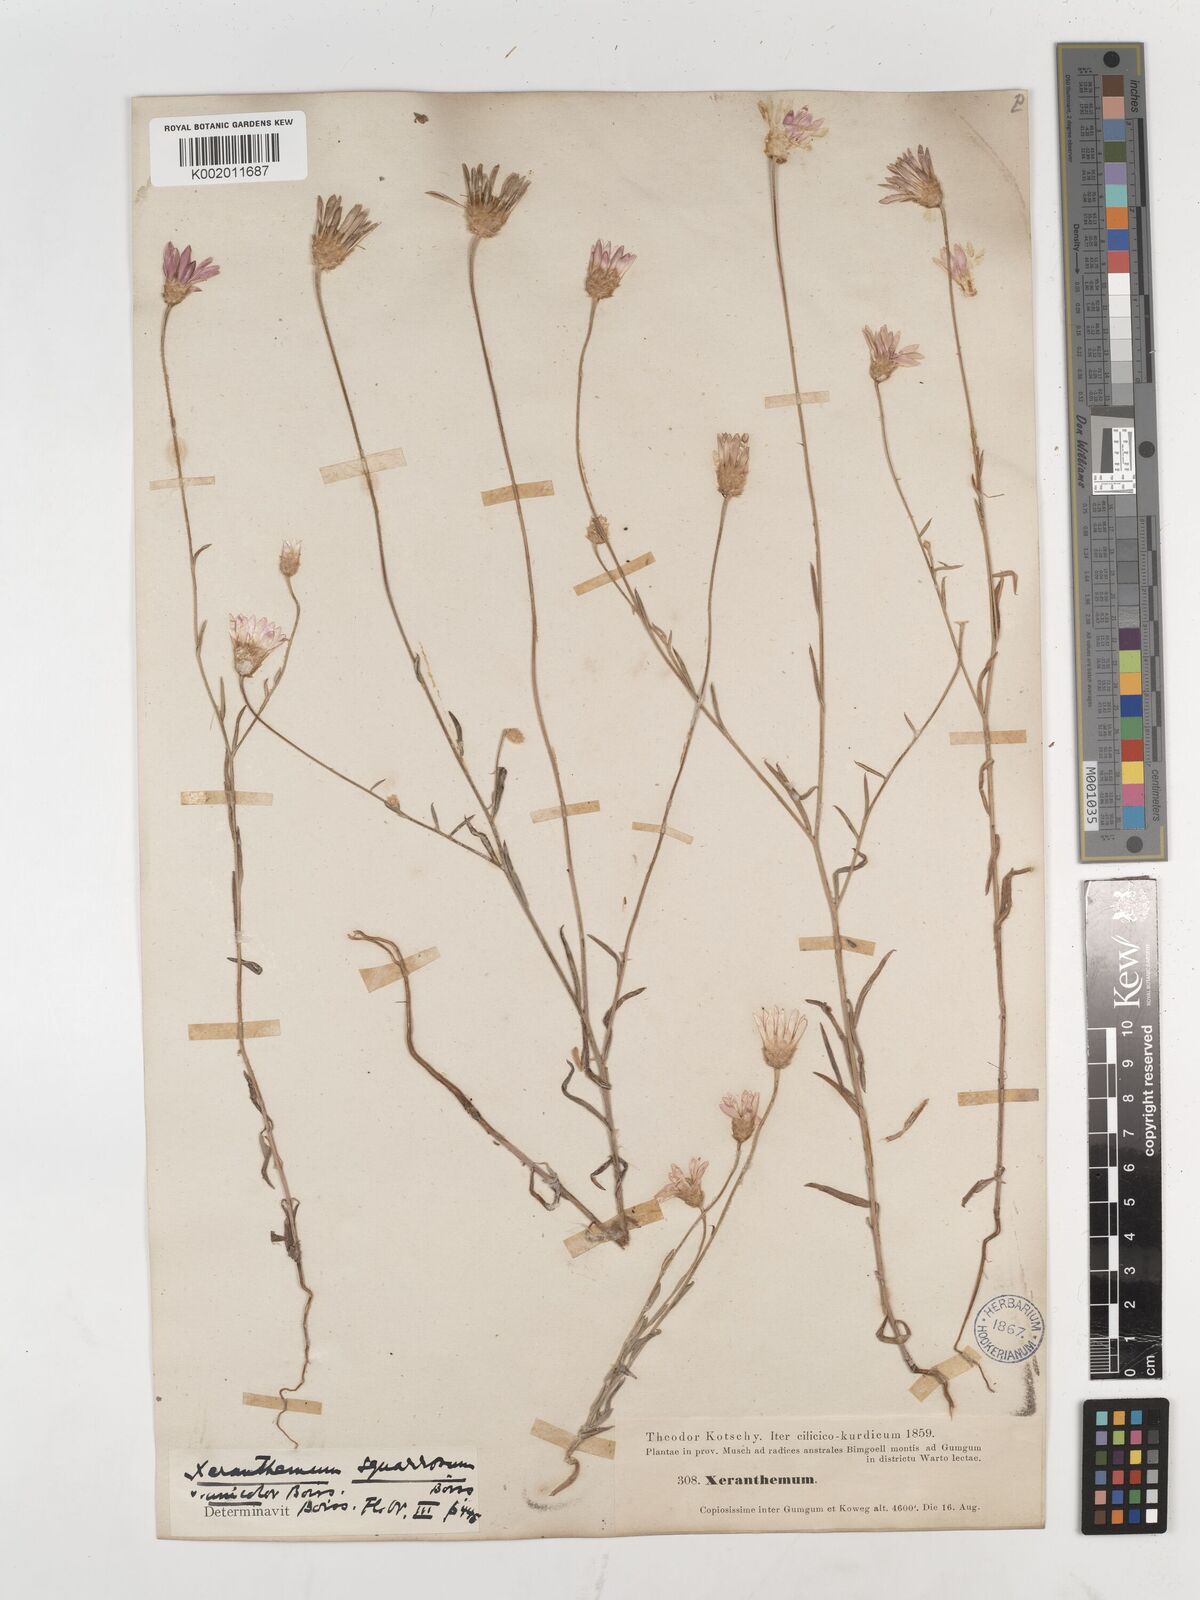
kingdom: Plantae
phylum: Tracheophyta
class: Magnoliopsida
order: Asterales
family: Asteraceae
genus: Xeranthemum
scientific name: Xeranthemum squarrosum
